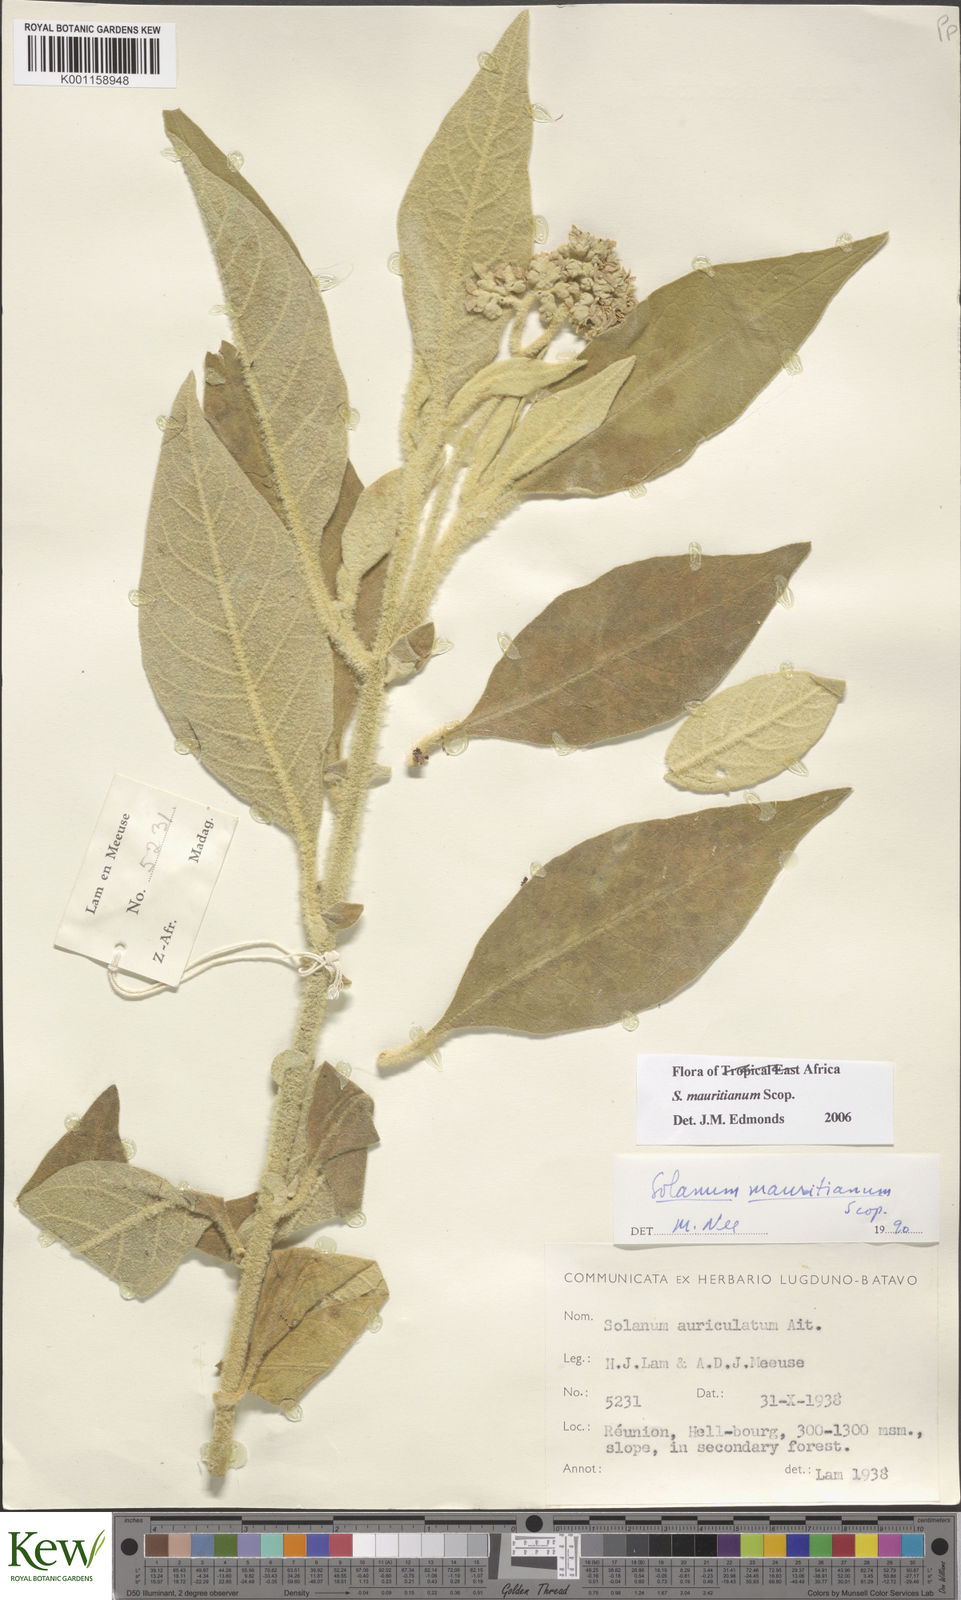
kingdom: Plantae
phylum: Tracheophyta
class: Magnoliopsida
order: Solanales
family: Solanaceae
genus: Solanum
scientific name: Solanum mauritianum
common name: Earleaf nightshade
